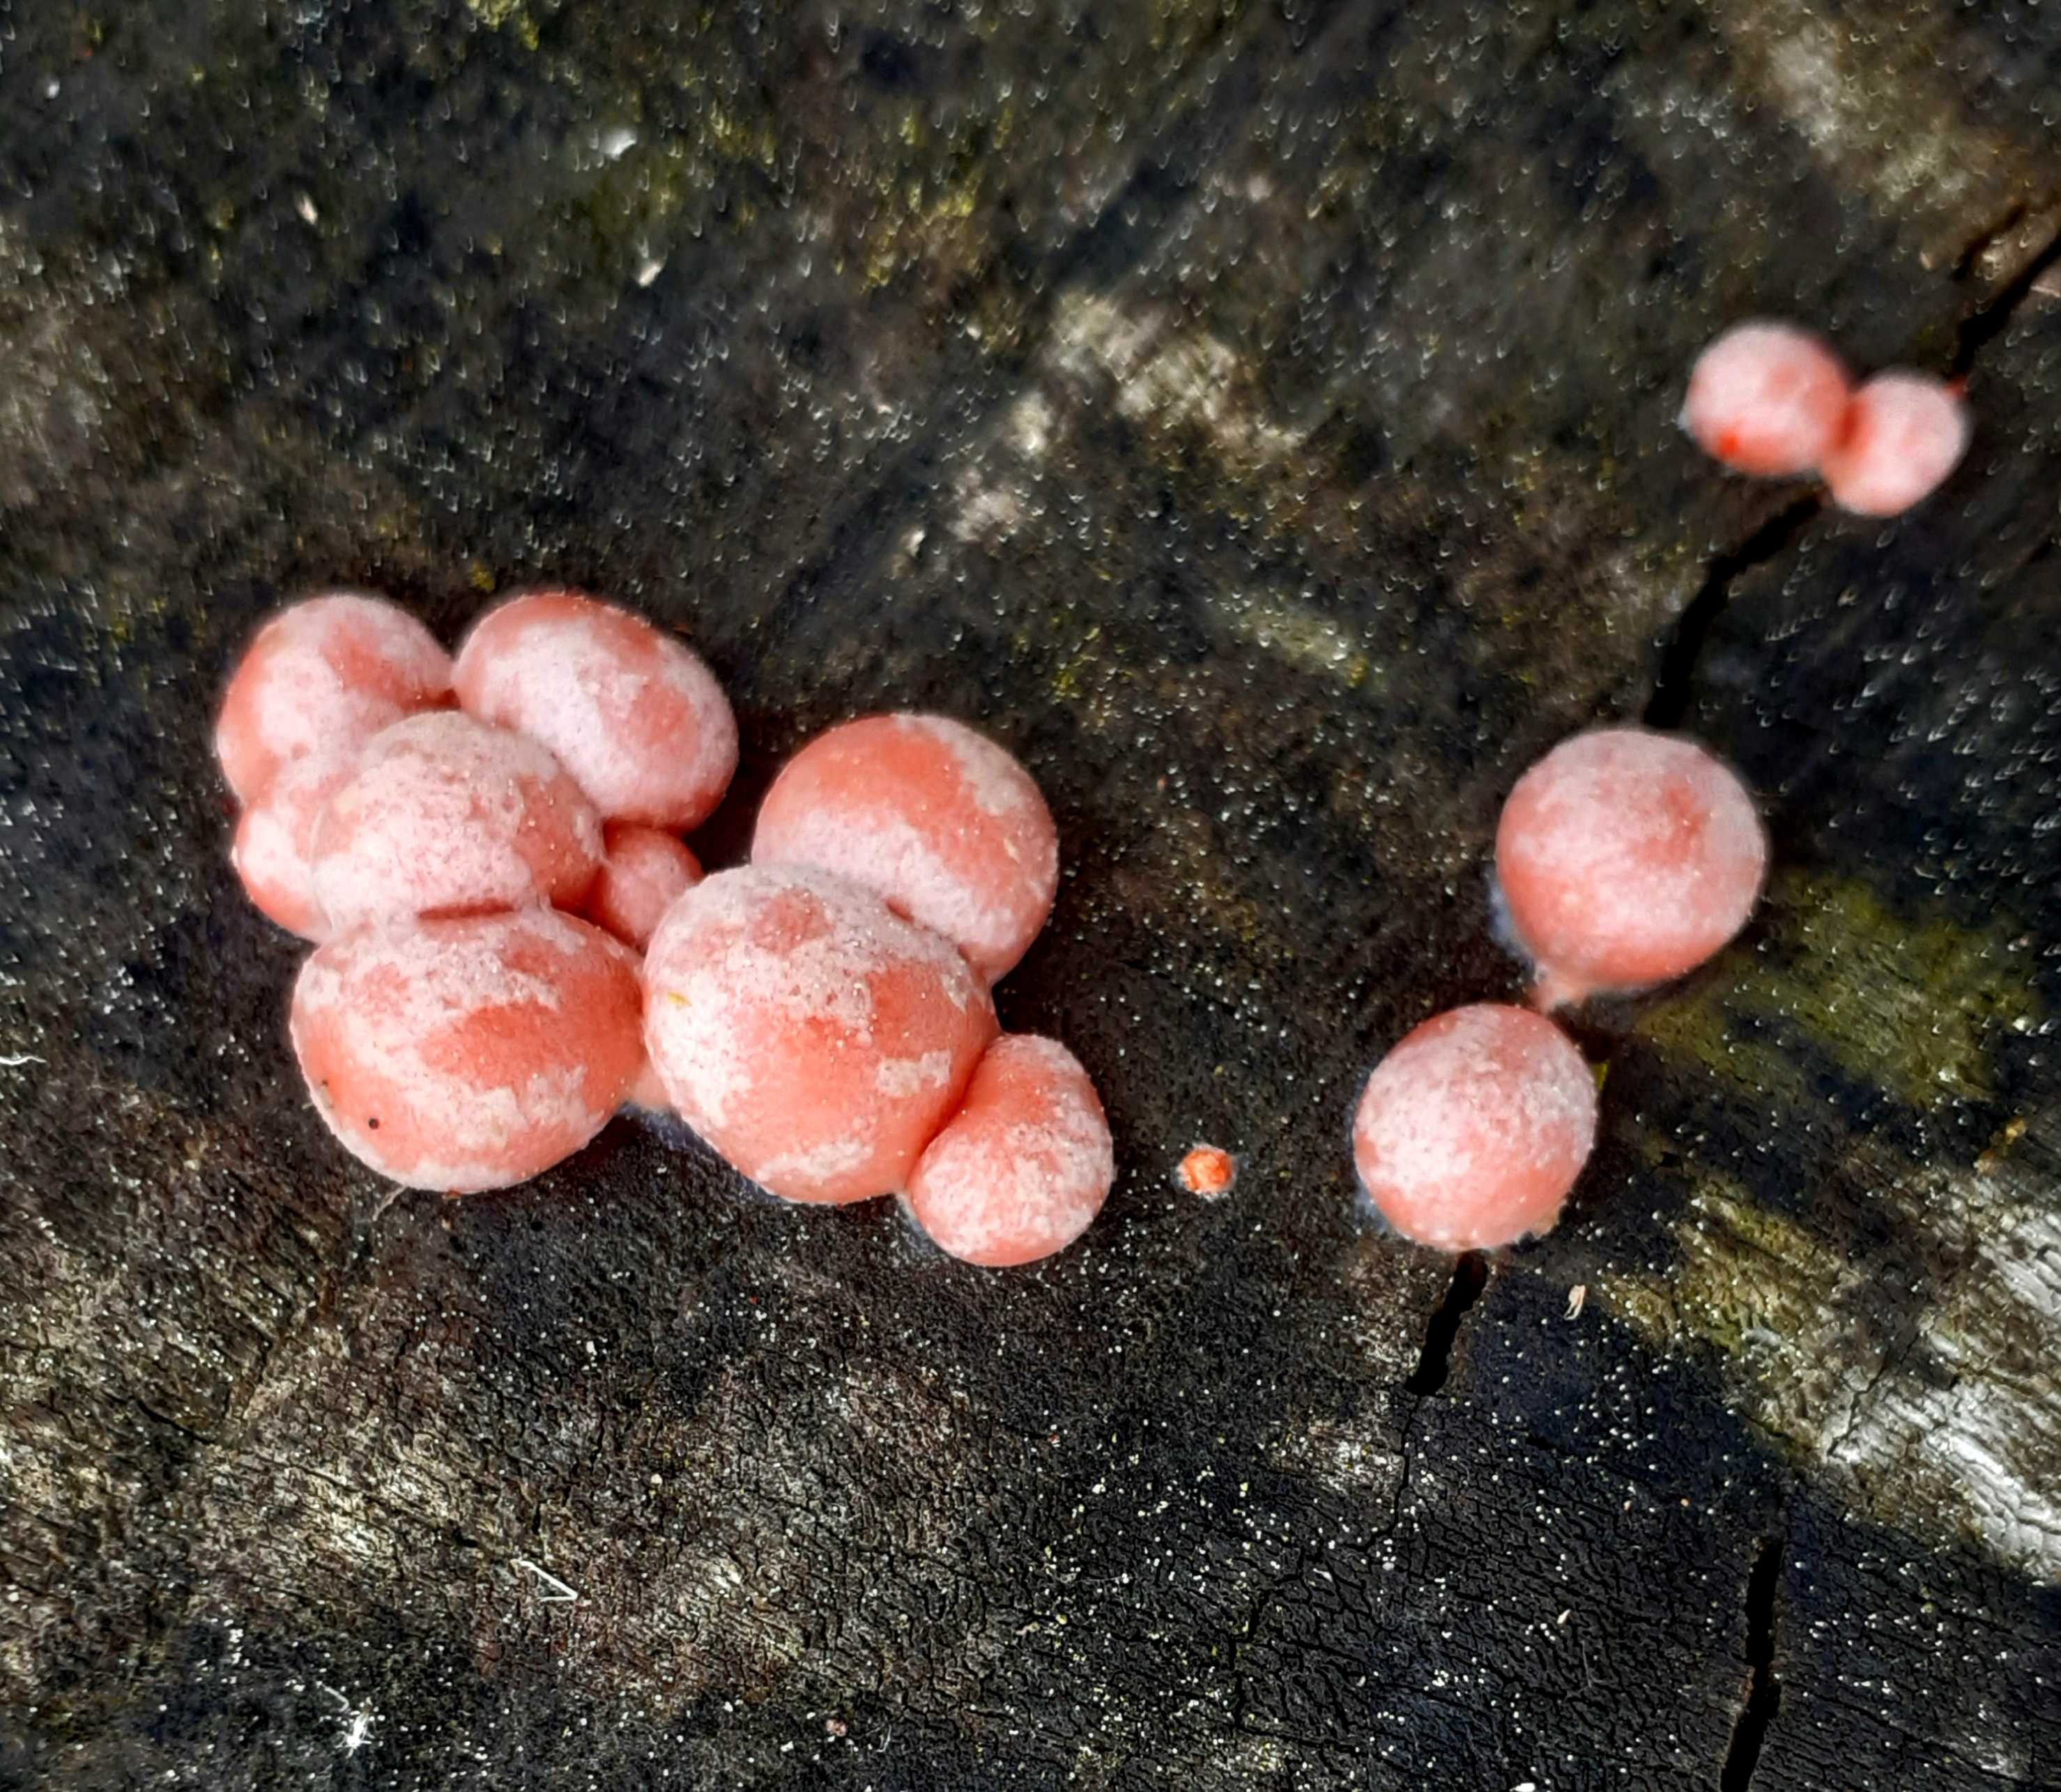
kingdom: Protozoa
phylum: Mycetozoa
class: Myxomycetes
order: Cribrariales
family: Tubiferaceae
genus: Lycogala
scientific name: Lycogala epidendrum
